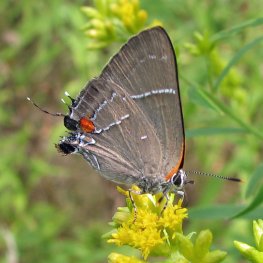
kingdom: Animalia
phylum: Arthropoda
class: Insecta
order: Lepidoptera
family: Lycaenidae
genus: Parrhasius
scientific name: Parrhasius m-album
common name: White-m Hairstreak
